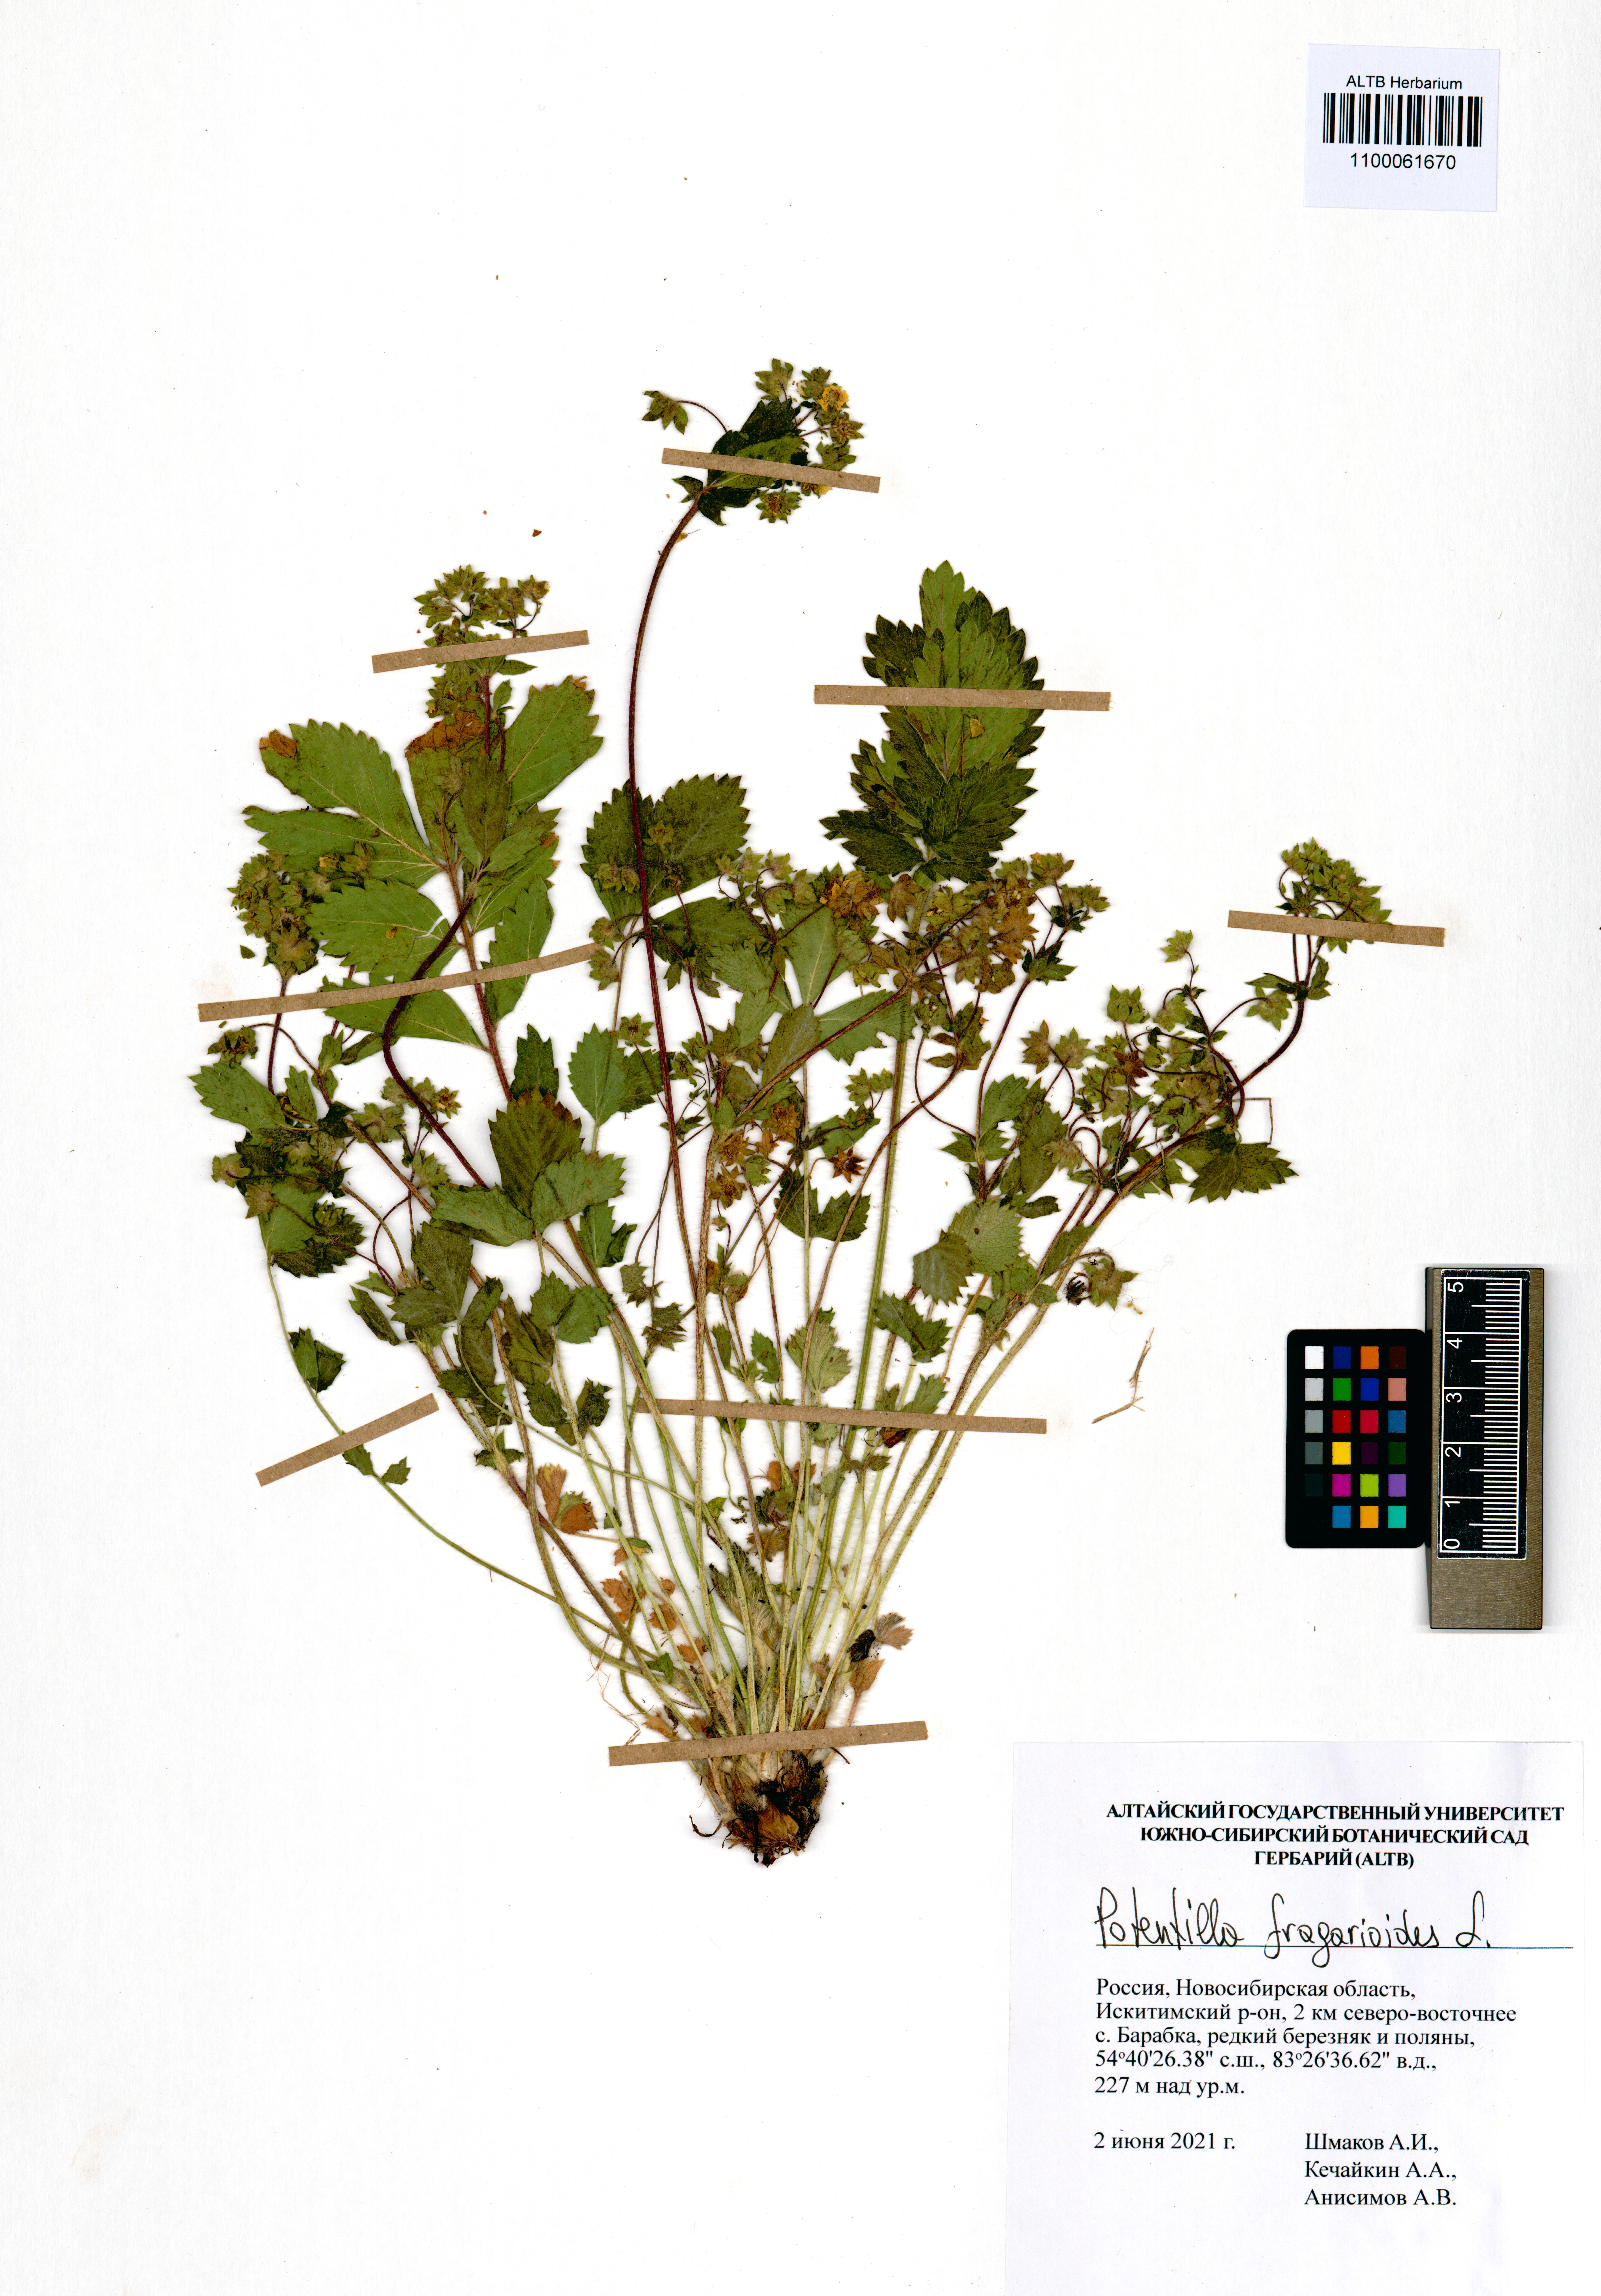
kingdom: Plantae
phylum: Tracheophyta
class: Magnoliopsida
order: Rosales
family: Rosaceae
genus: Potentilla
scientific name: Potentilla fragarioides
